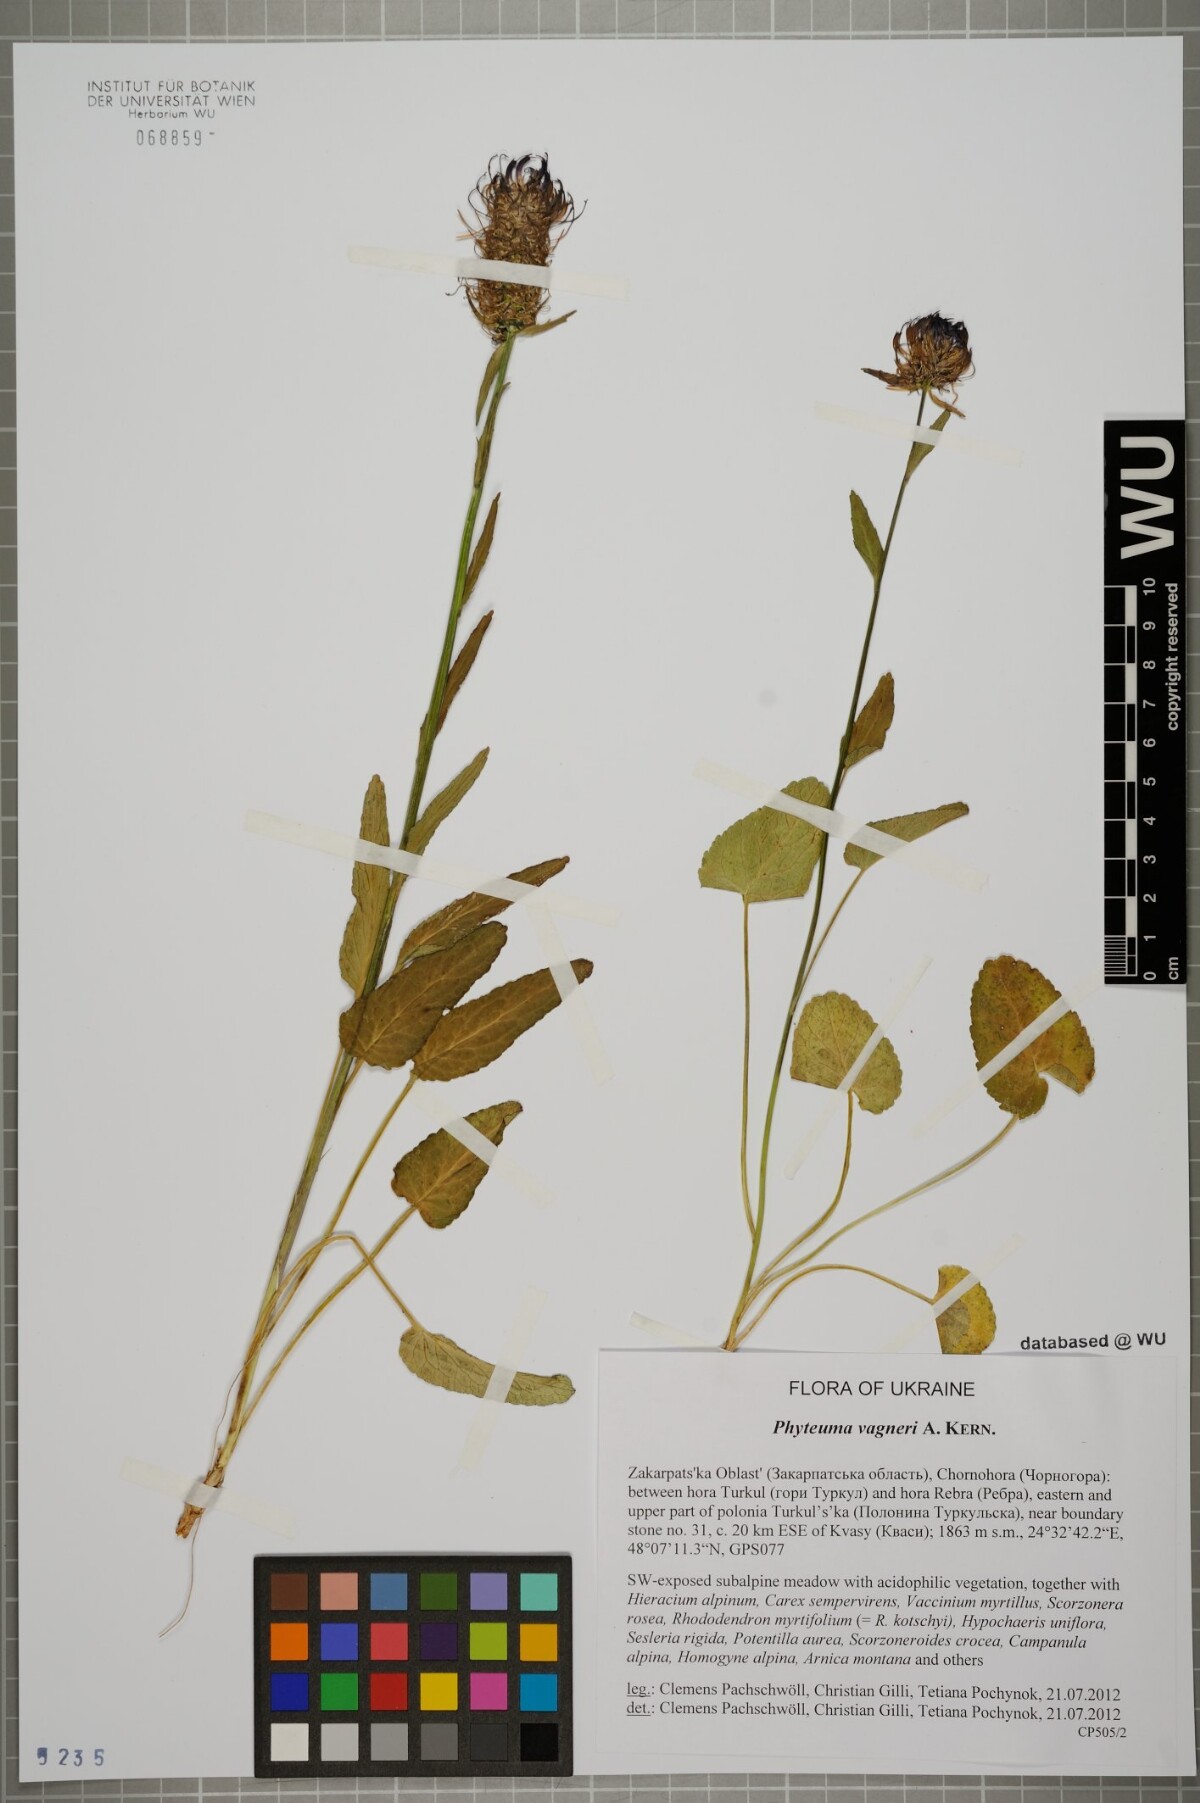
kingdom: Plantae
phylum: Tracheophyta
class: Magnoliopsida
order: Asterales
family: Campanulaceae
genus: Phyteuma
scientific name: Phyteuma vagneri
